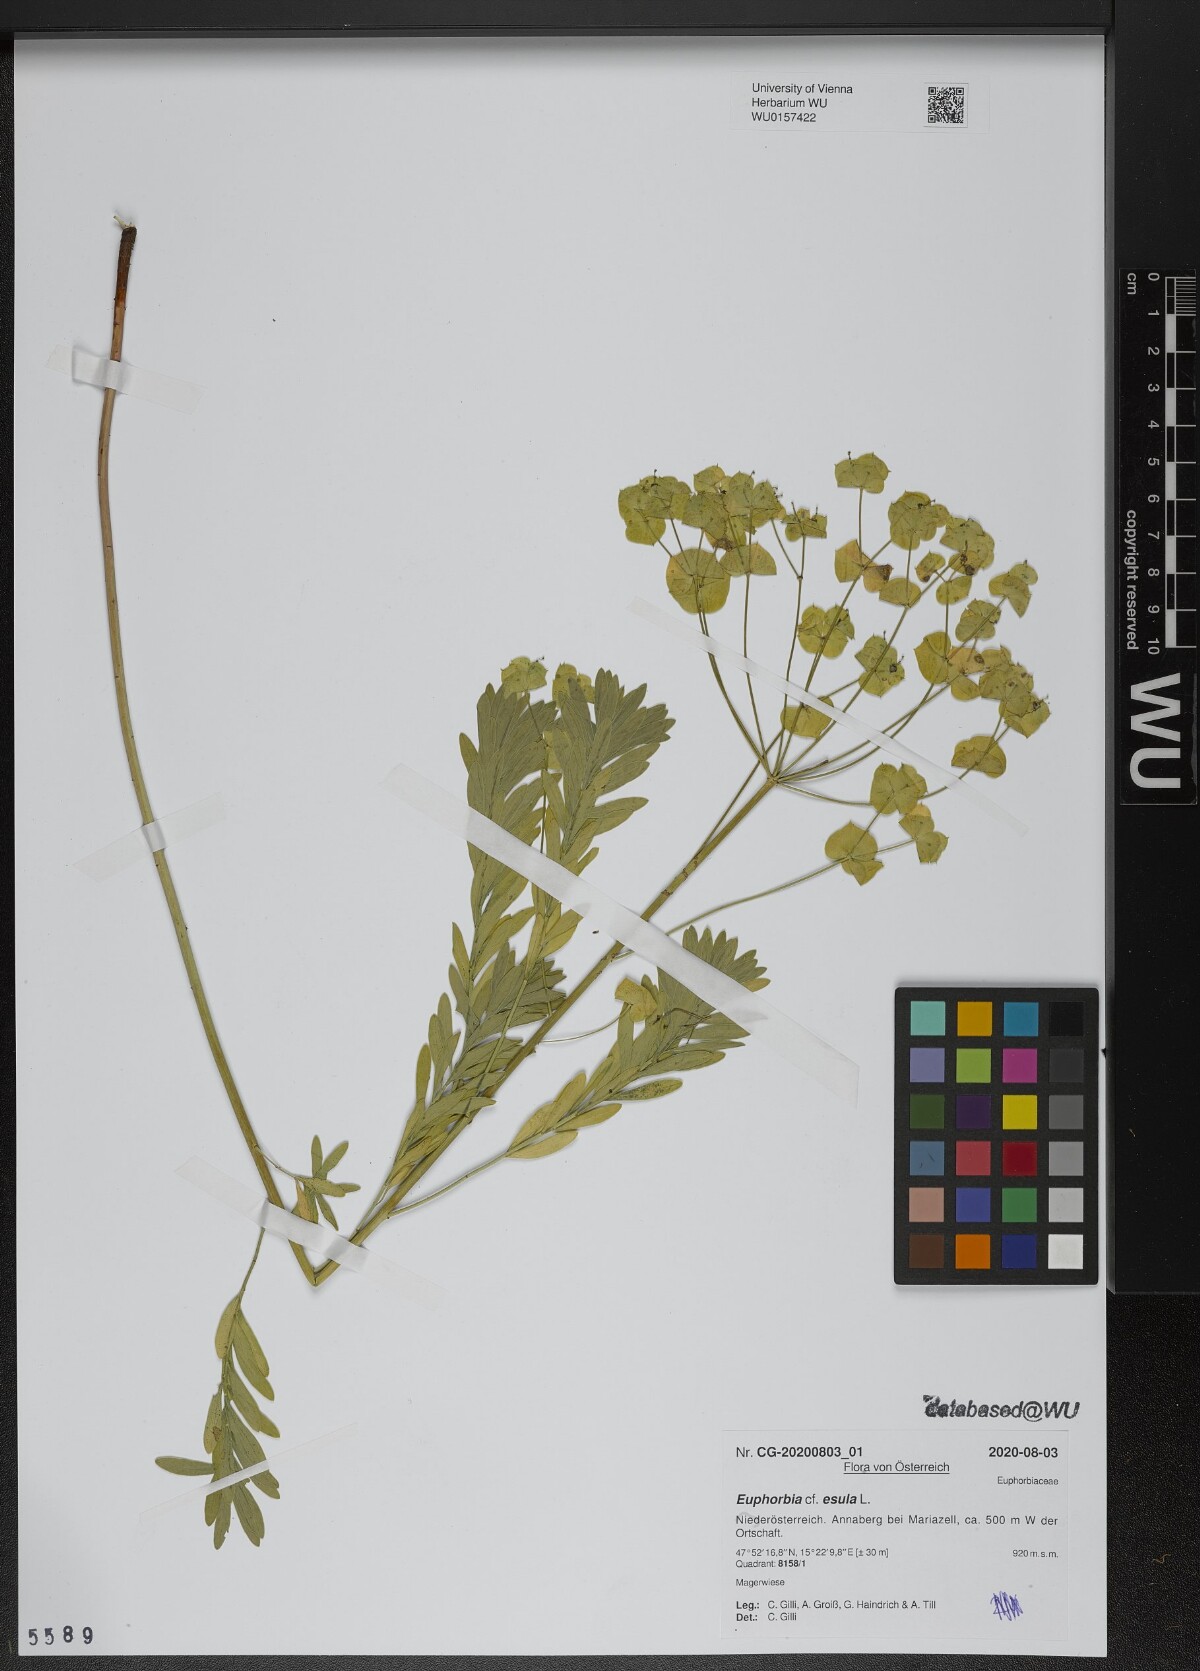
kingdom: Plantae
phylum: Tracheophyta
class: Magnoliopsida
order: Malpighiales
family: Euphorbiaceae
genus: Euphorbia
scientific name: Euphorbia esula
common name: Leafy spurge
